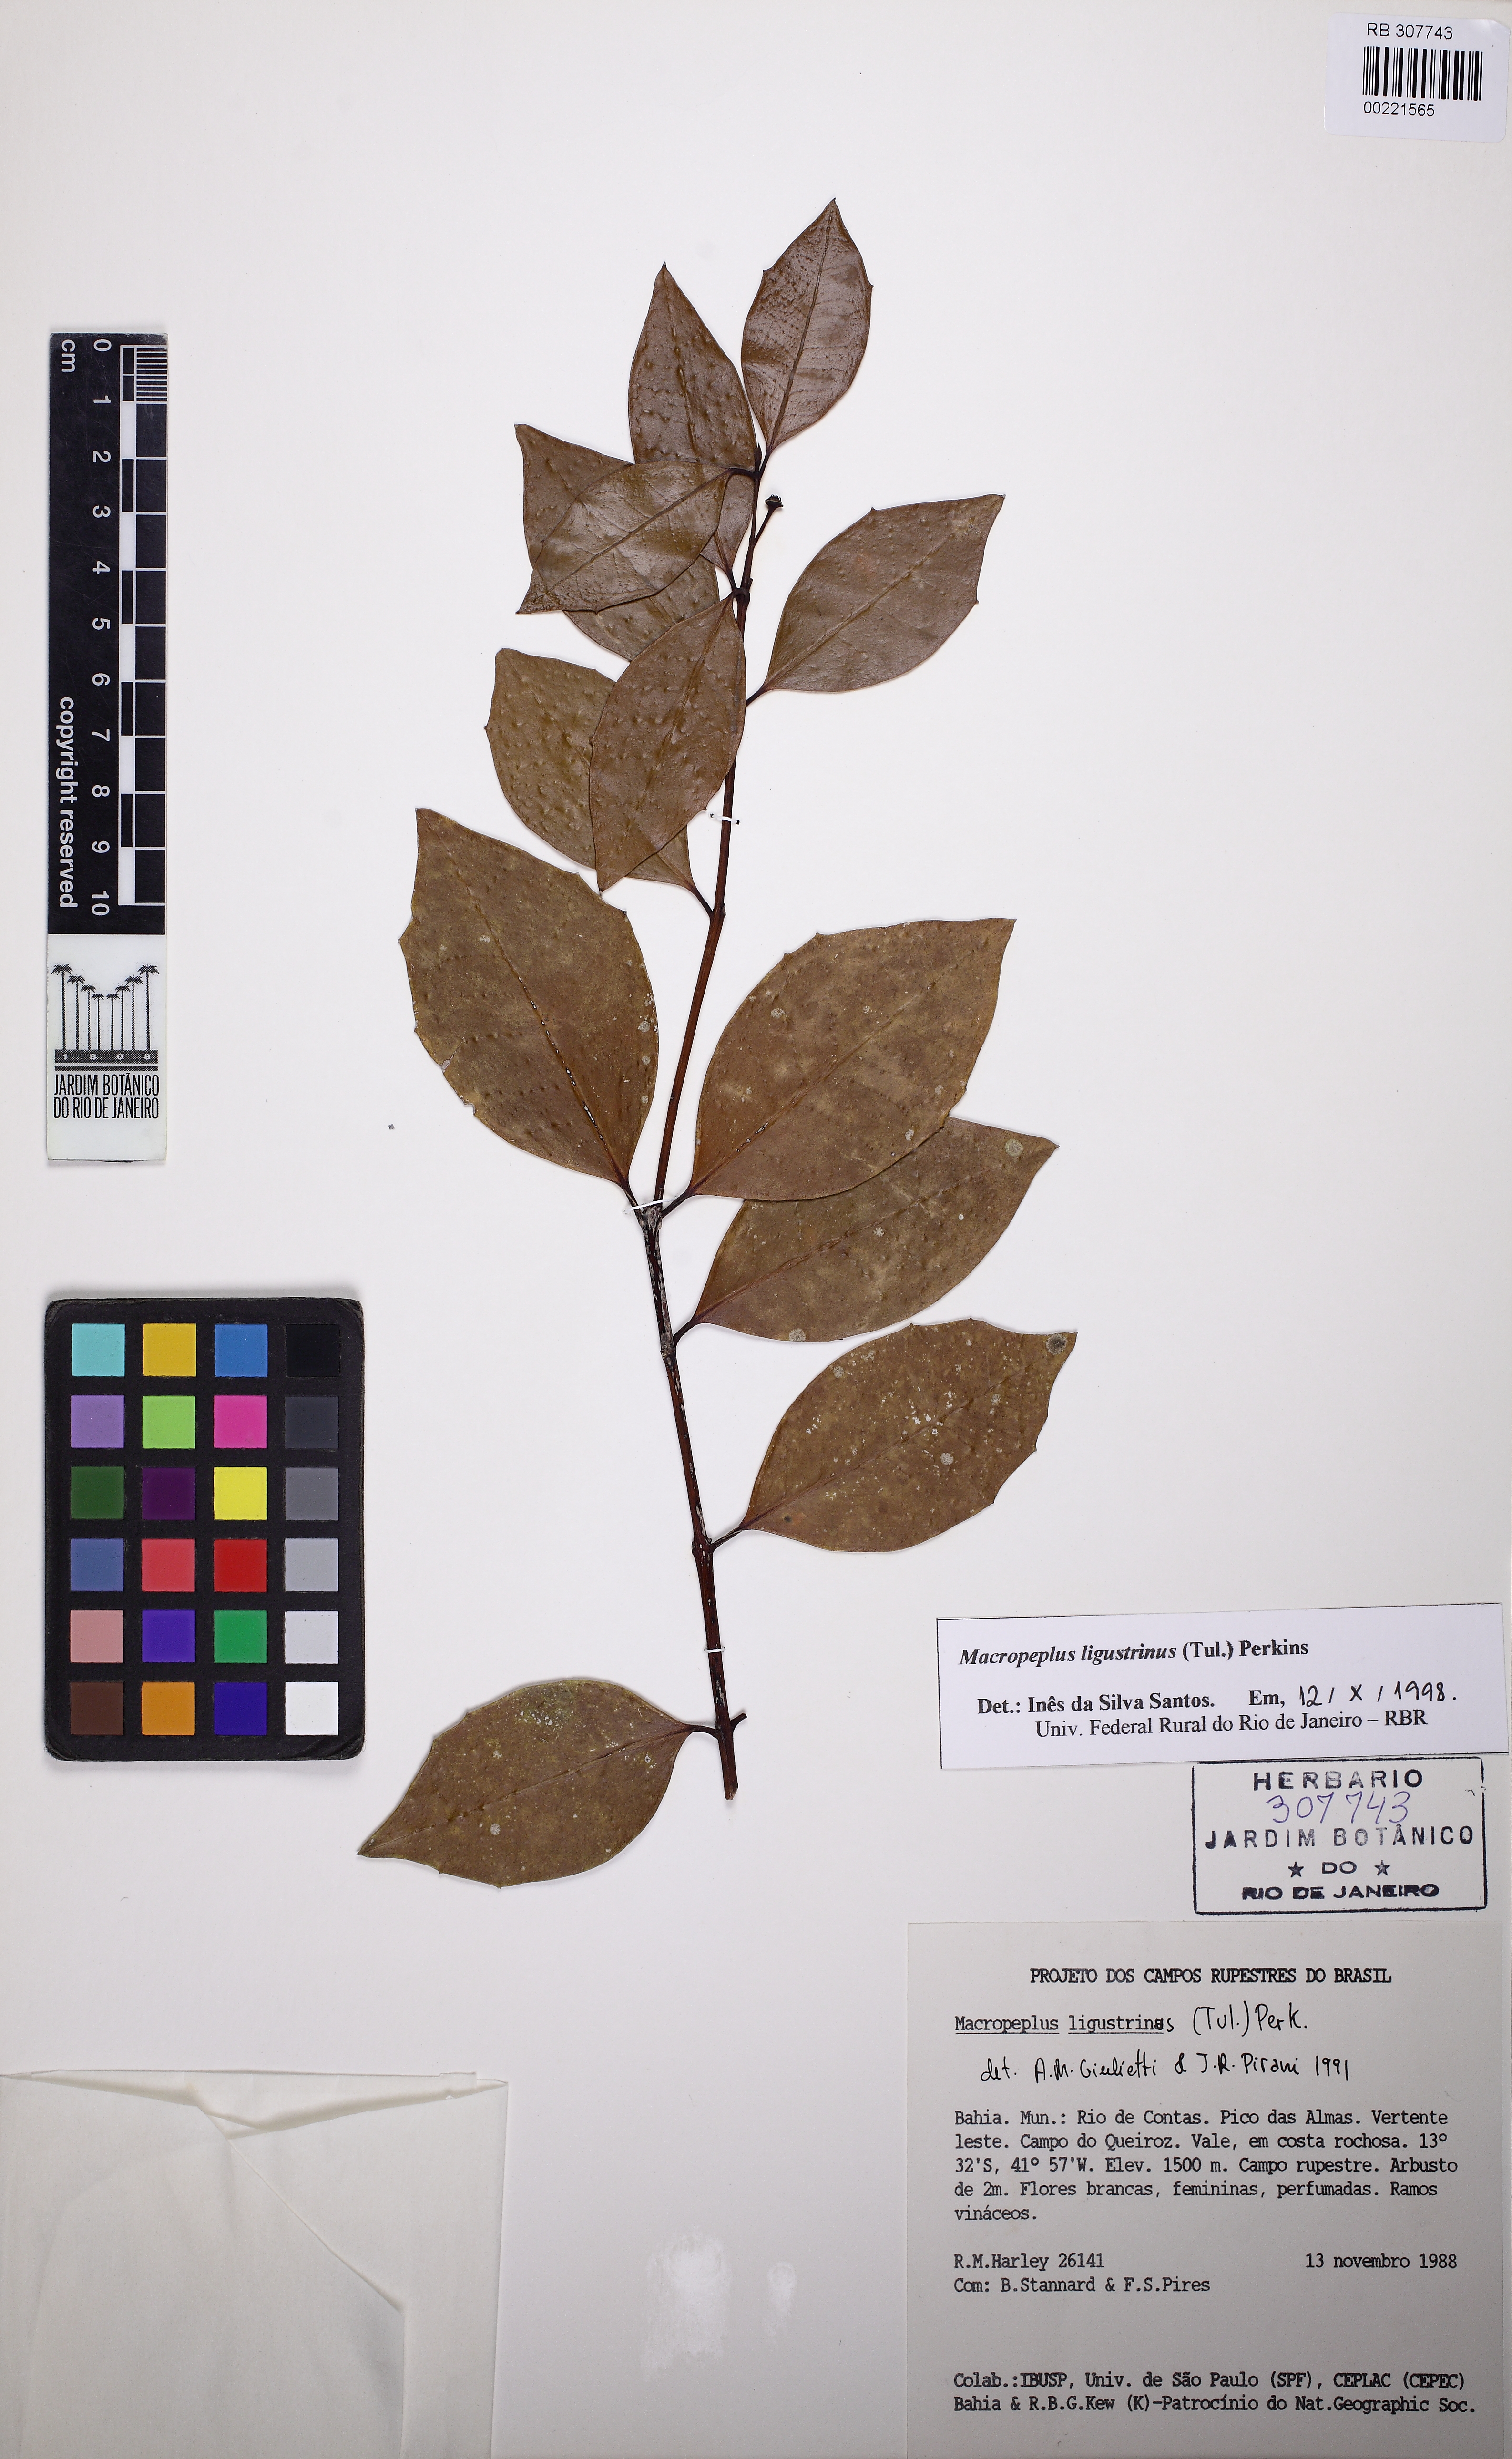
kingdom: Plantae
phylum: Tracheophyta
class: Magnoliopsida
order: Laurales
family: Monimiaceae
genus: Macropeplus
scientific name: Macropeplus ligustrinus
